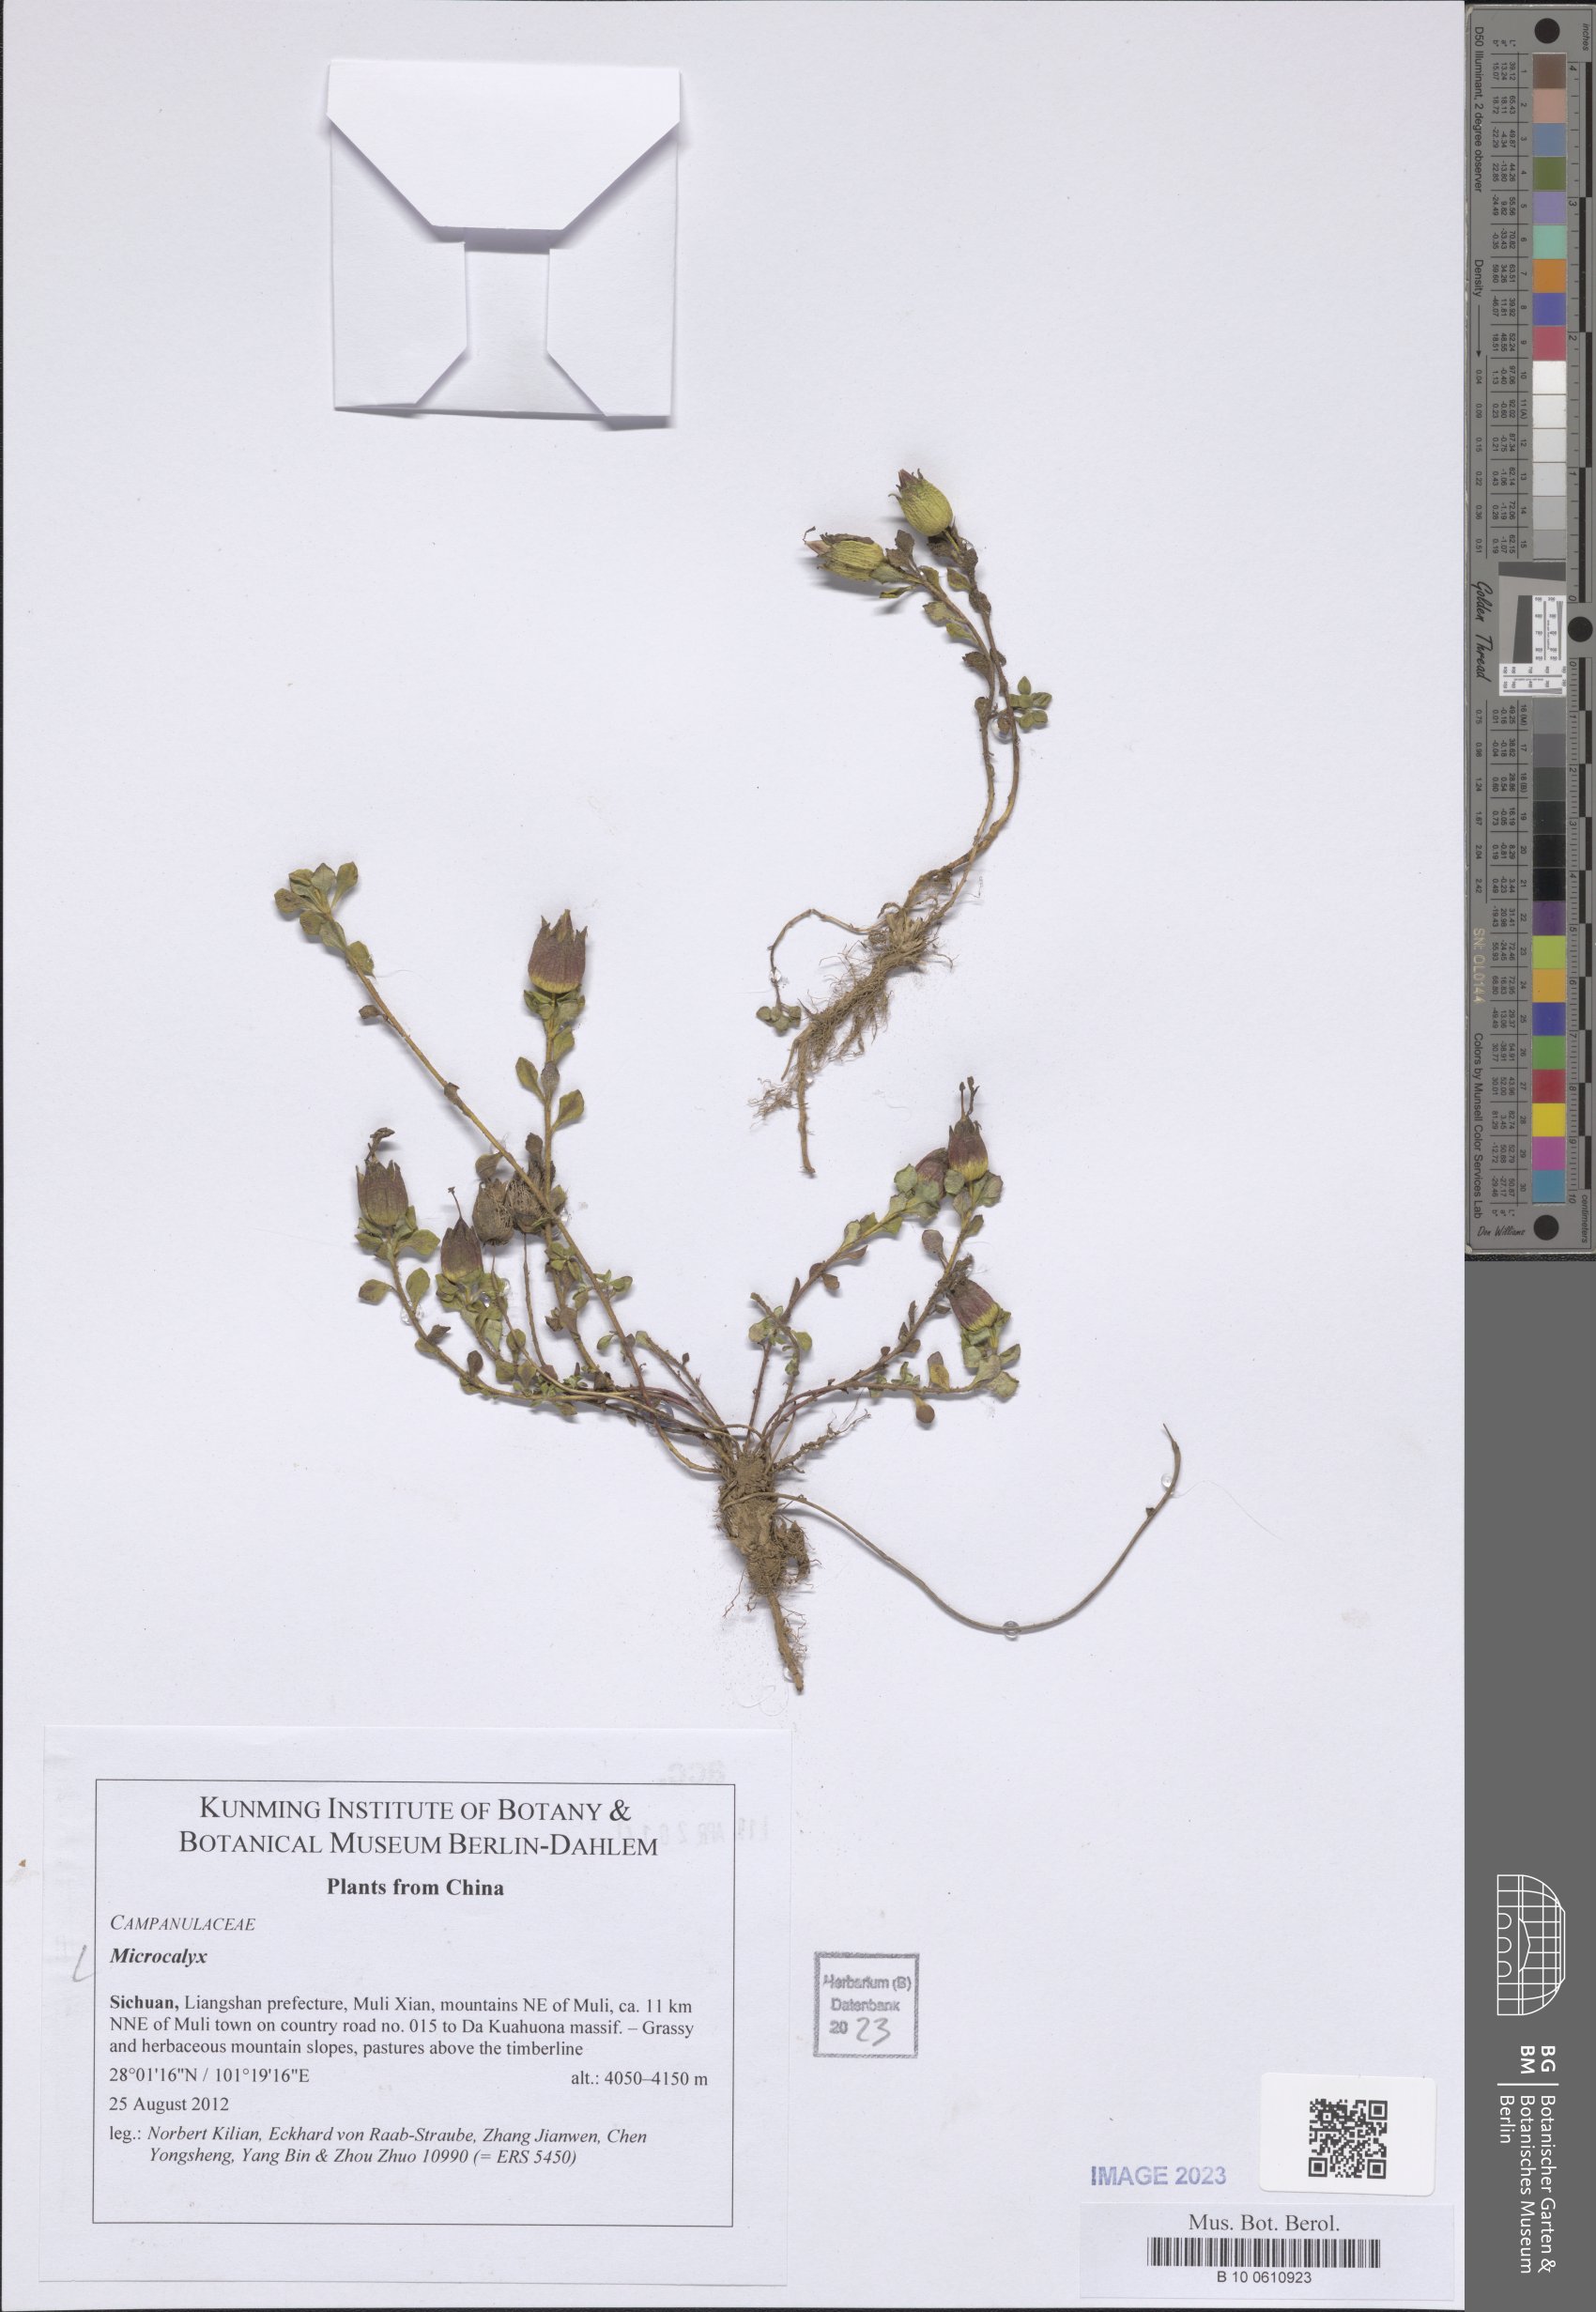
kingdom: Plantae
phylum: Tracheophyta
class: Magnoliopsida
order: Asterales
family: Campanulaceae
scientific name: Campanulaceae
